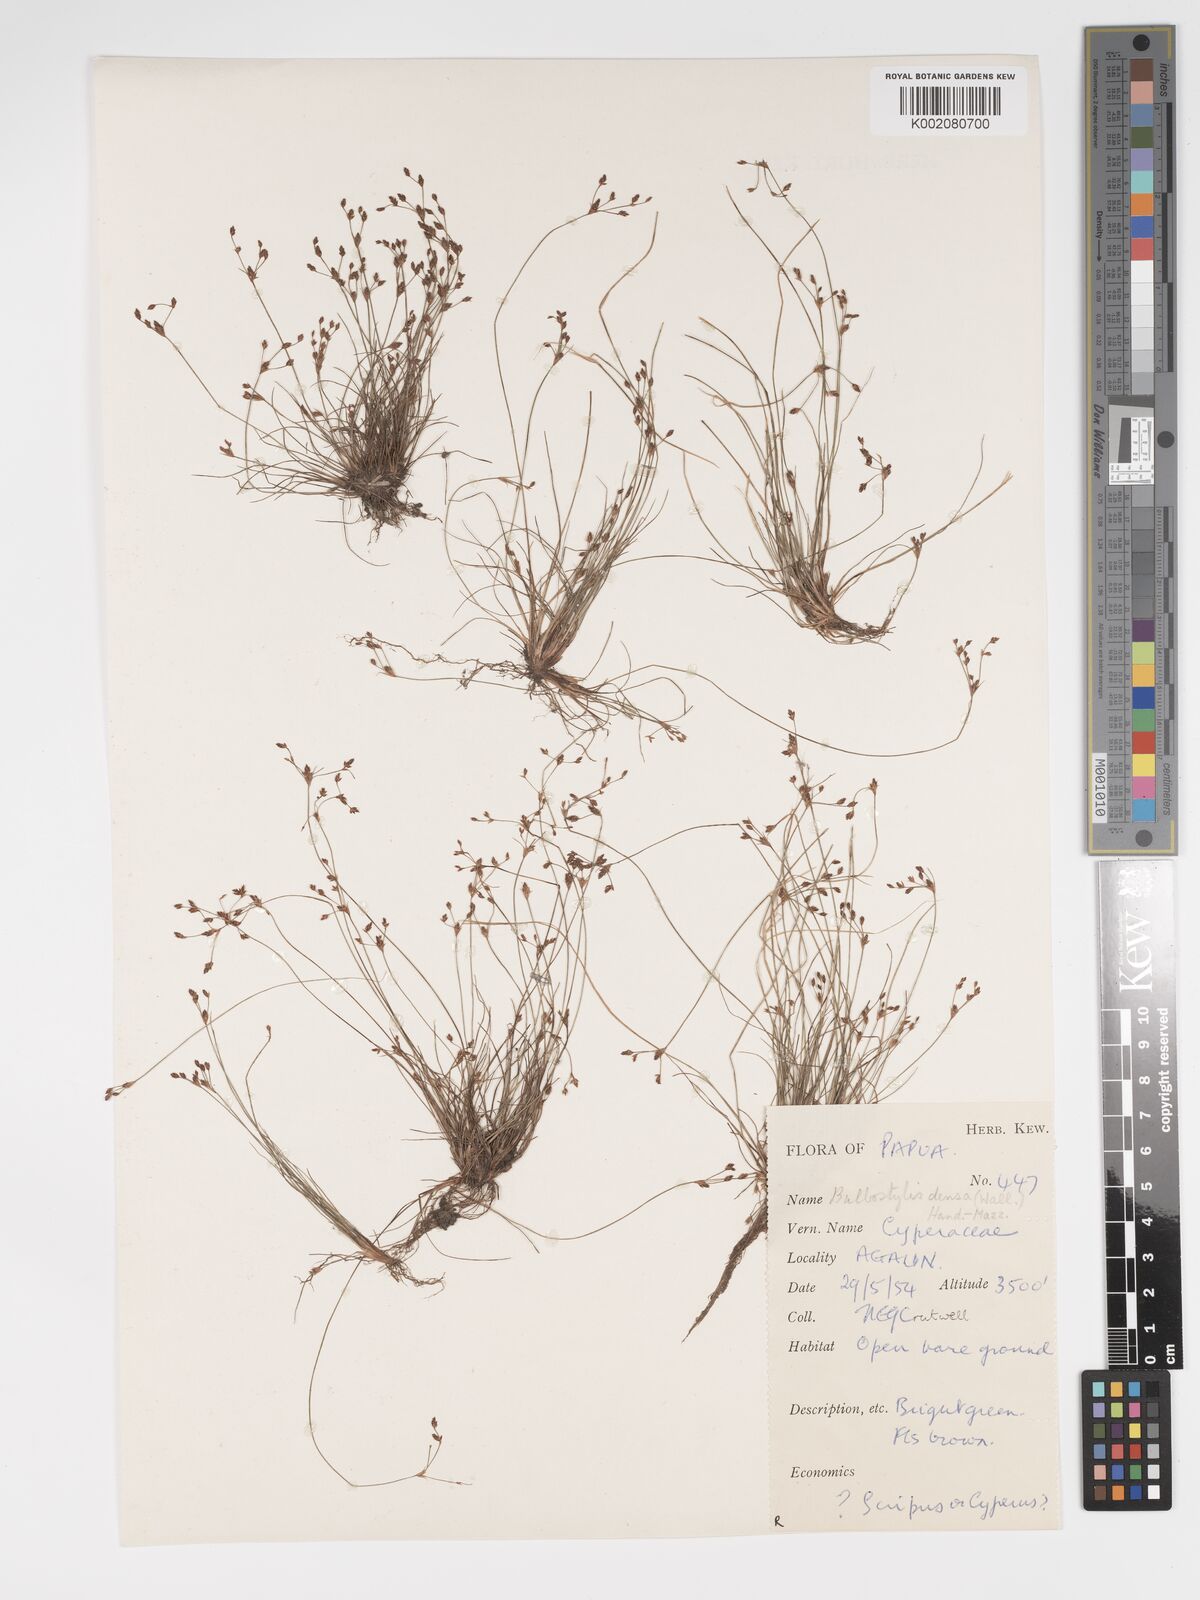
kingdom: Plantae
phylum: Tracheophyta
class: Liliopsida
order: Poales
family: Cyperaceae
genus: Bulbostylis
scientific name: Bulbostylis densa
